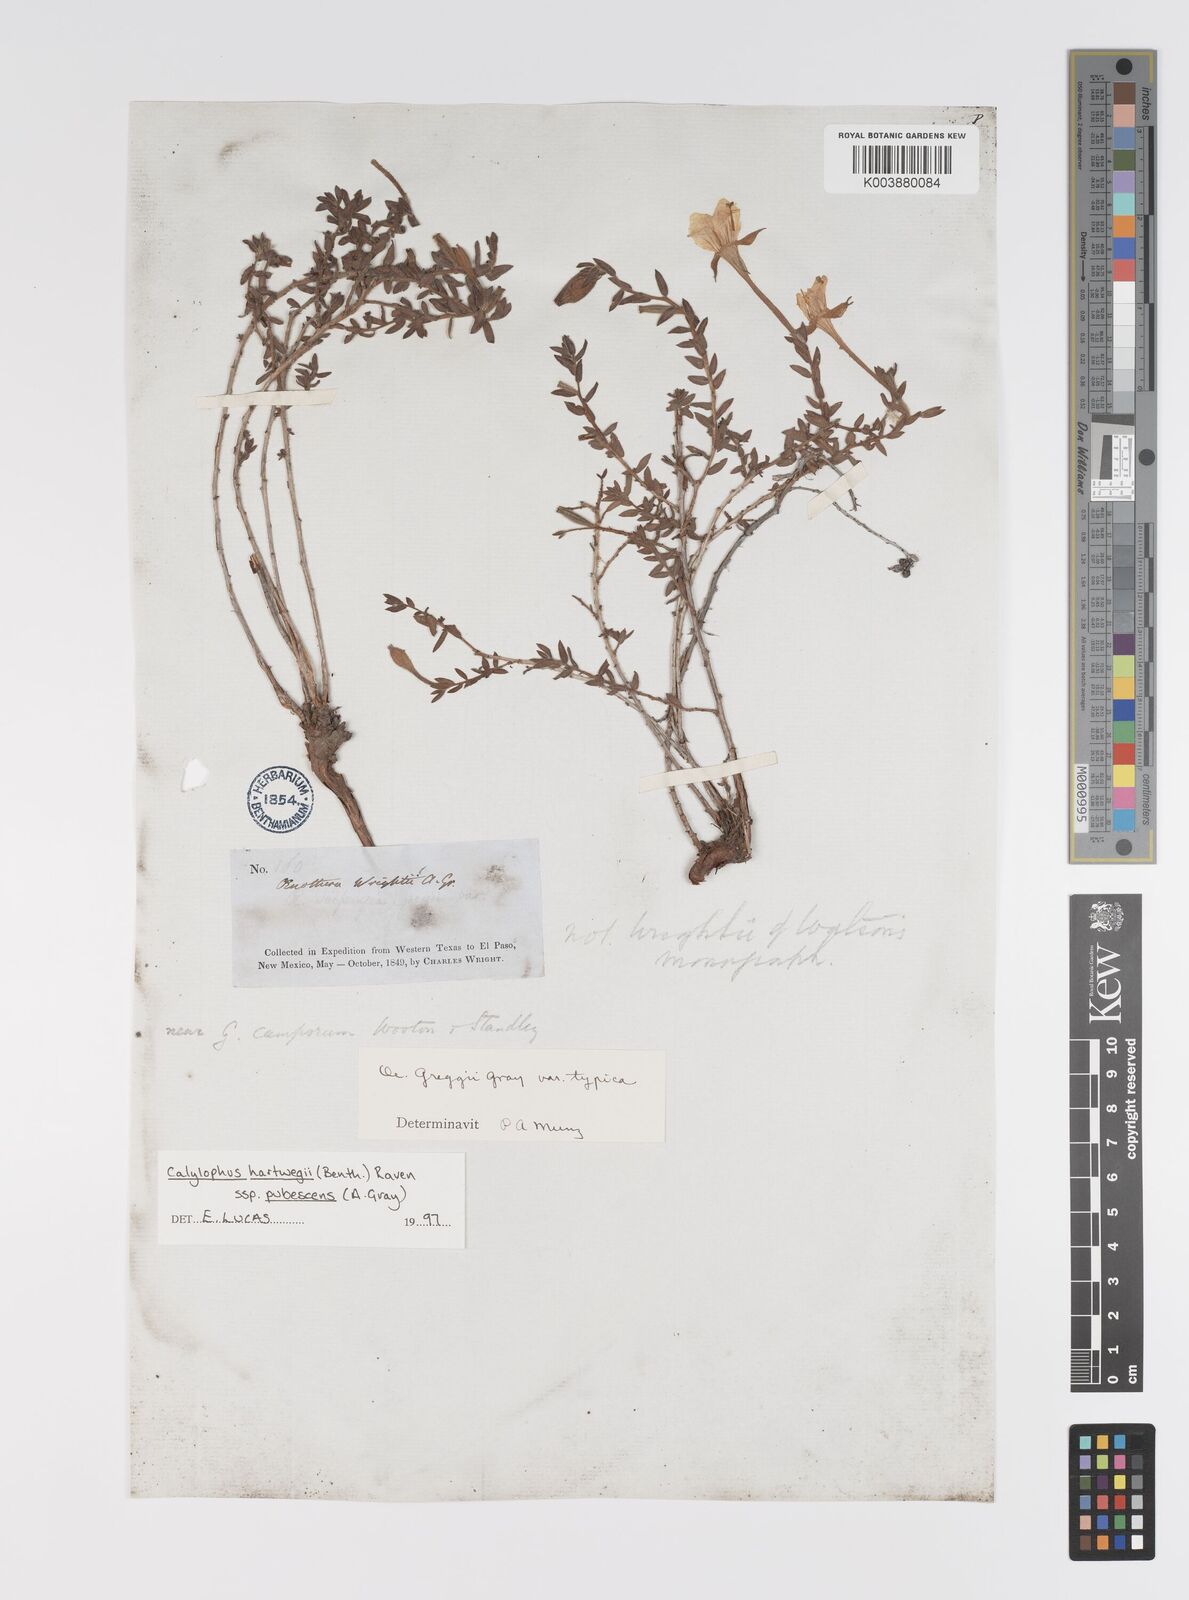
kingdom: Plantae
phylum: Tracheophyta
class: Magnoliopsida
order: Myrtales
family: Onagraceae
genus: Oenothera
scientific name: Oenothera hartwegii
